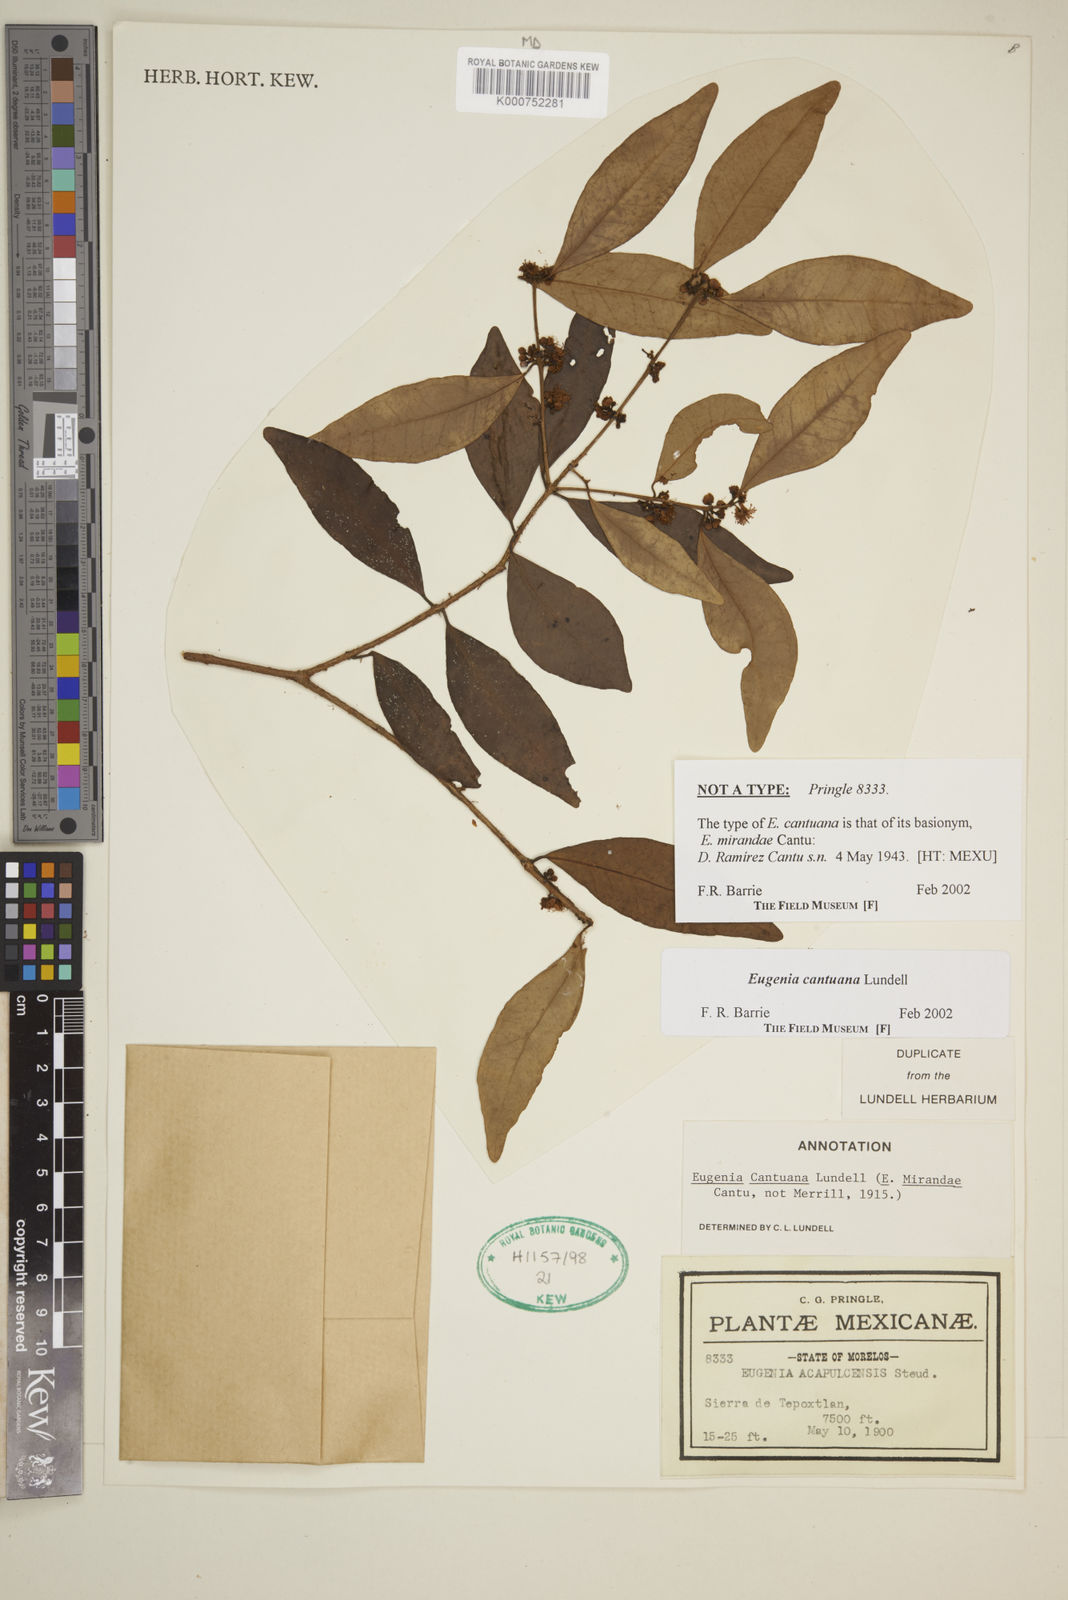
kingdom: Plantae
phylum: Tracheophyta
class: Magnoliopsida
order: Myrtales
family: Myrtaceae
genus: Eugenia
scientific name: Eugenia cantuana
